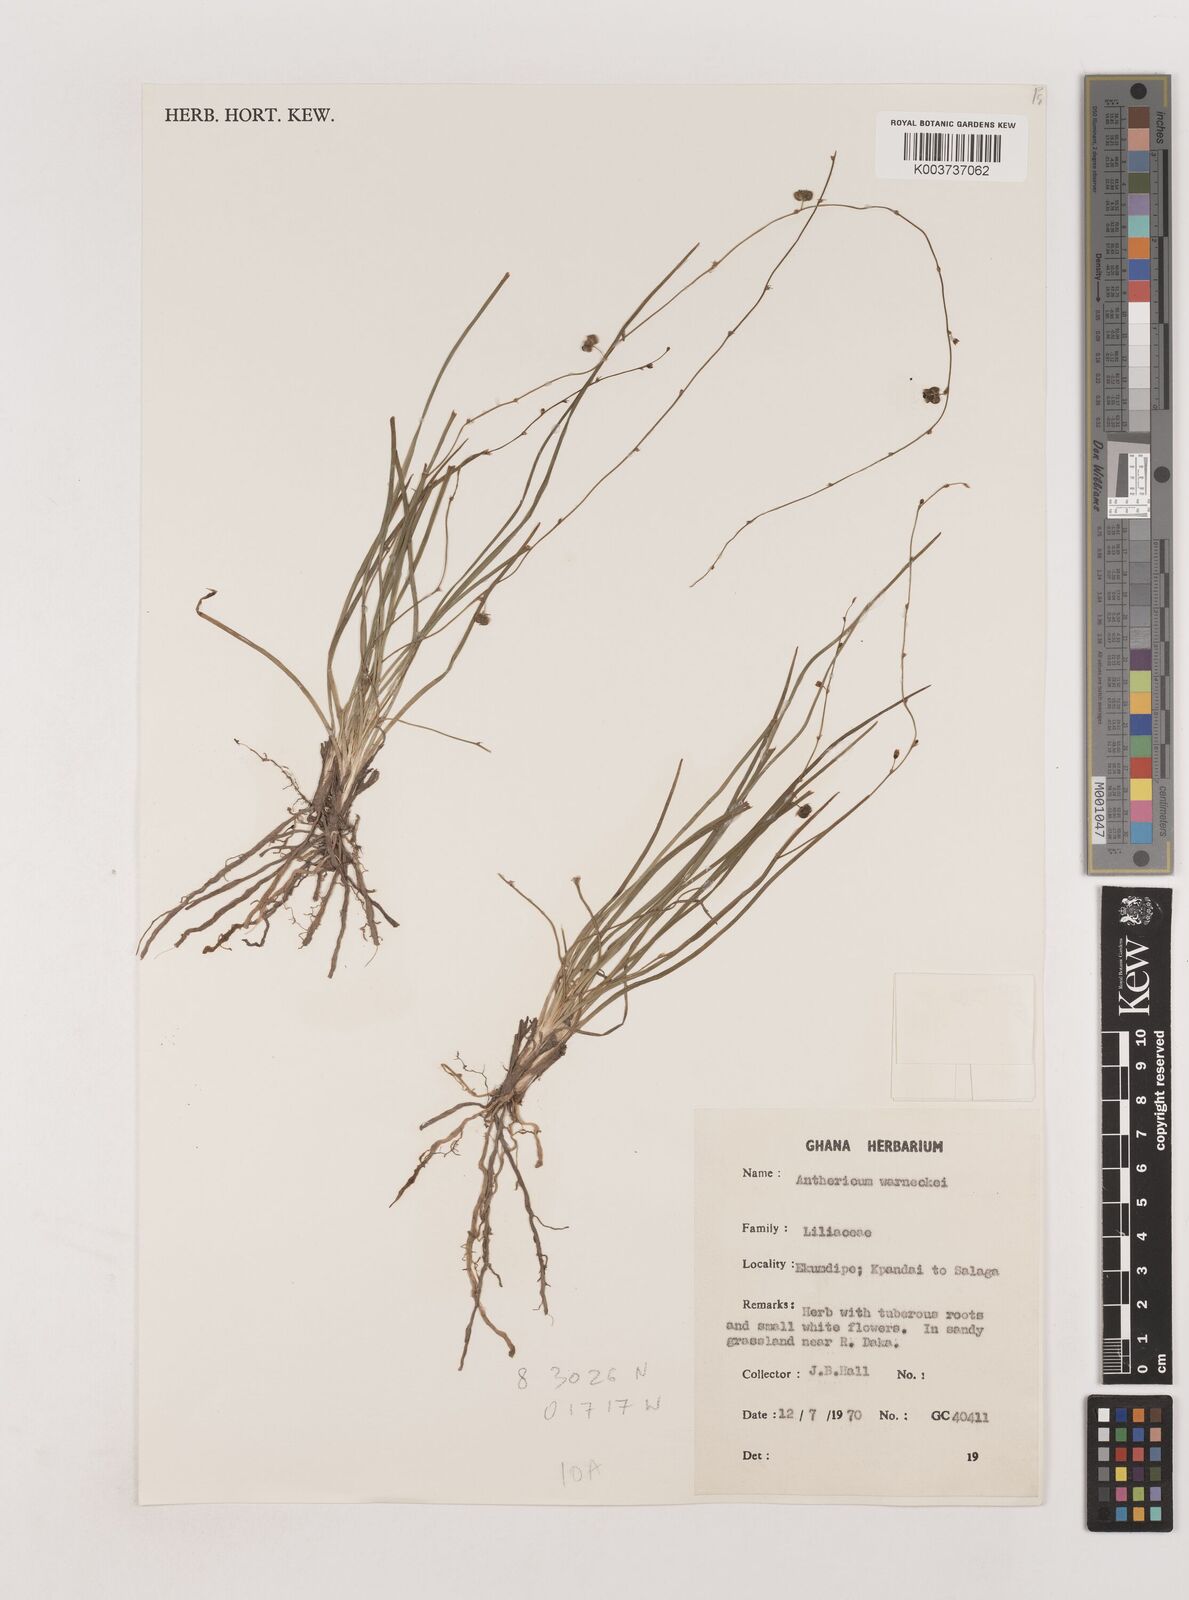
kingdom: Plantae
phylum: Tracheophyta
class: Liliopsida
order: Asparagales
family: Asparagaceae
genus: Chlorophytum
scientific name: Chlorophytum warneckei
